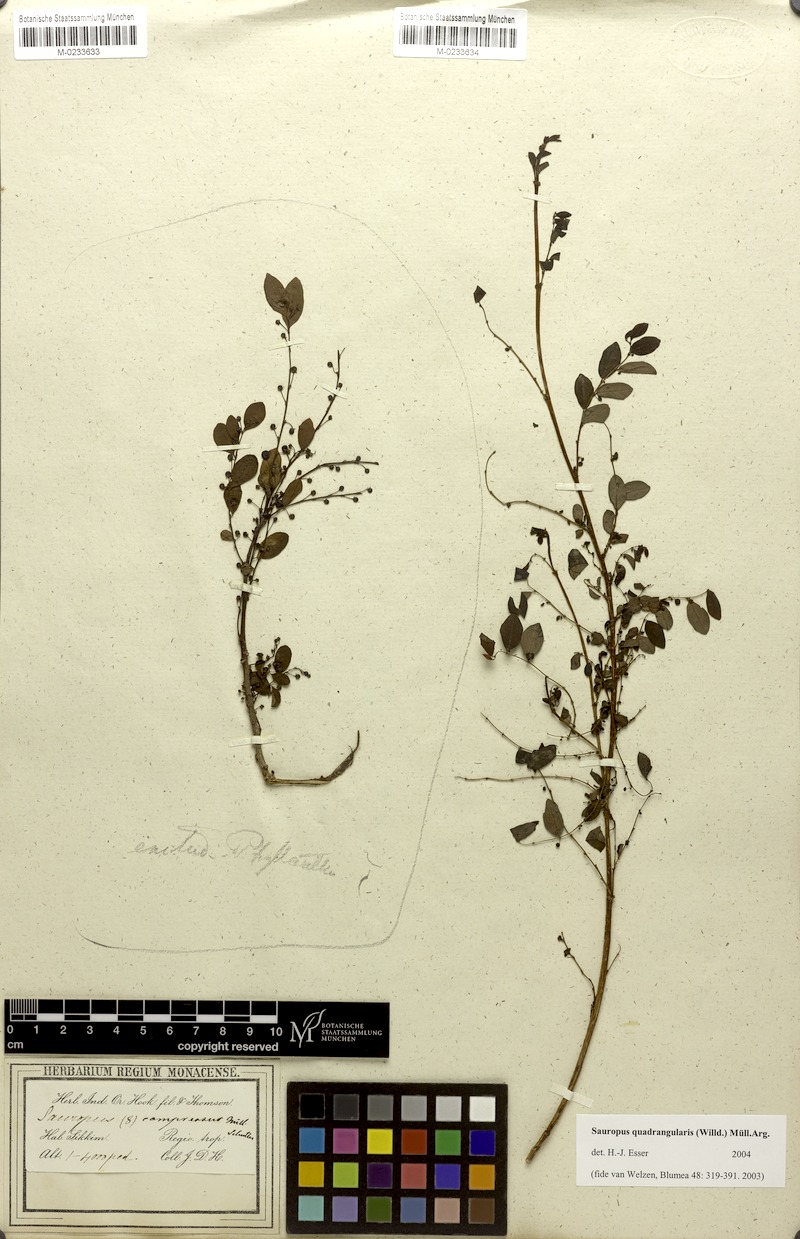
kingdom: Plantae
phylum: Tracheophyta
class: Magnoliopsida
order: Malpighiales
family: Phyllanthaceae
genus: Breynia
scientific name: Breynia quadrangularis
